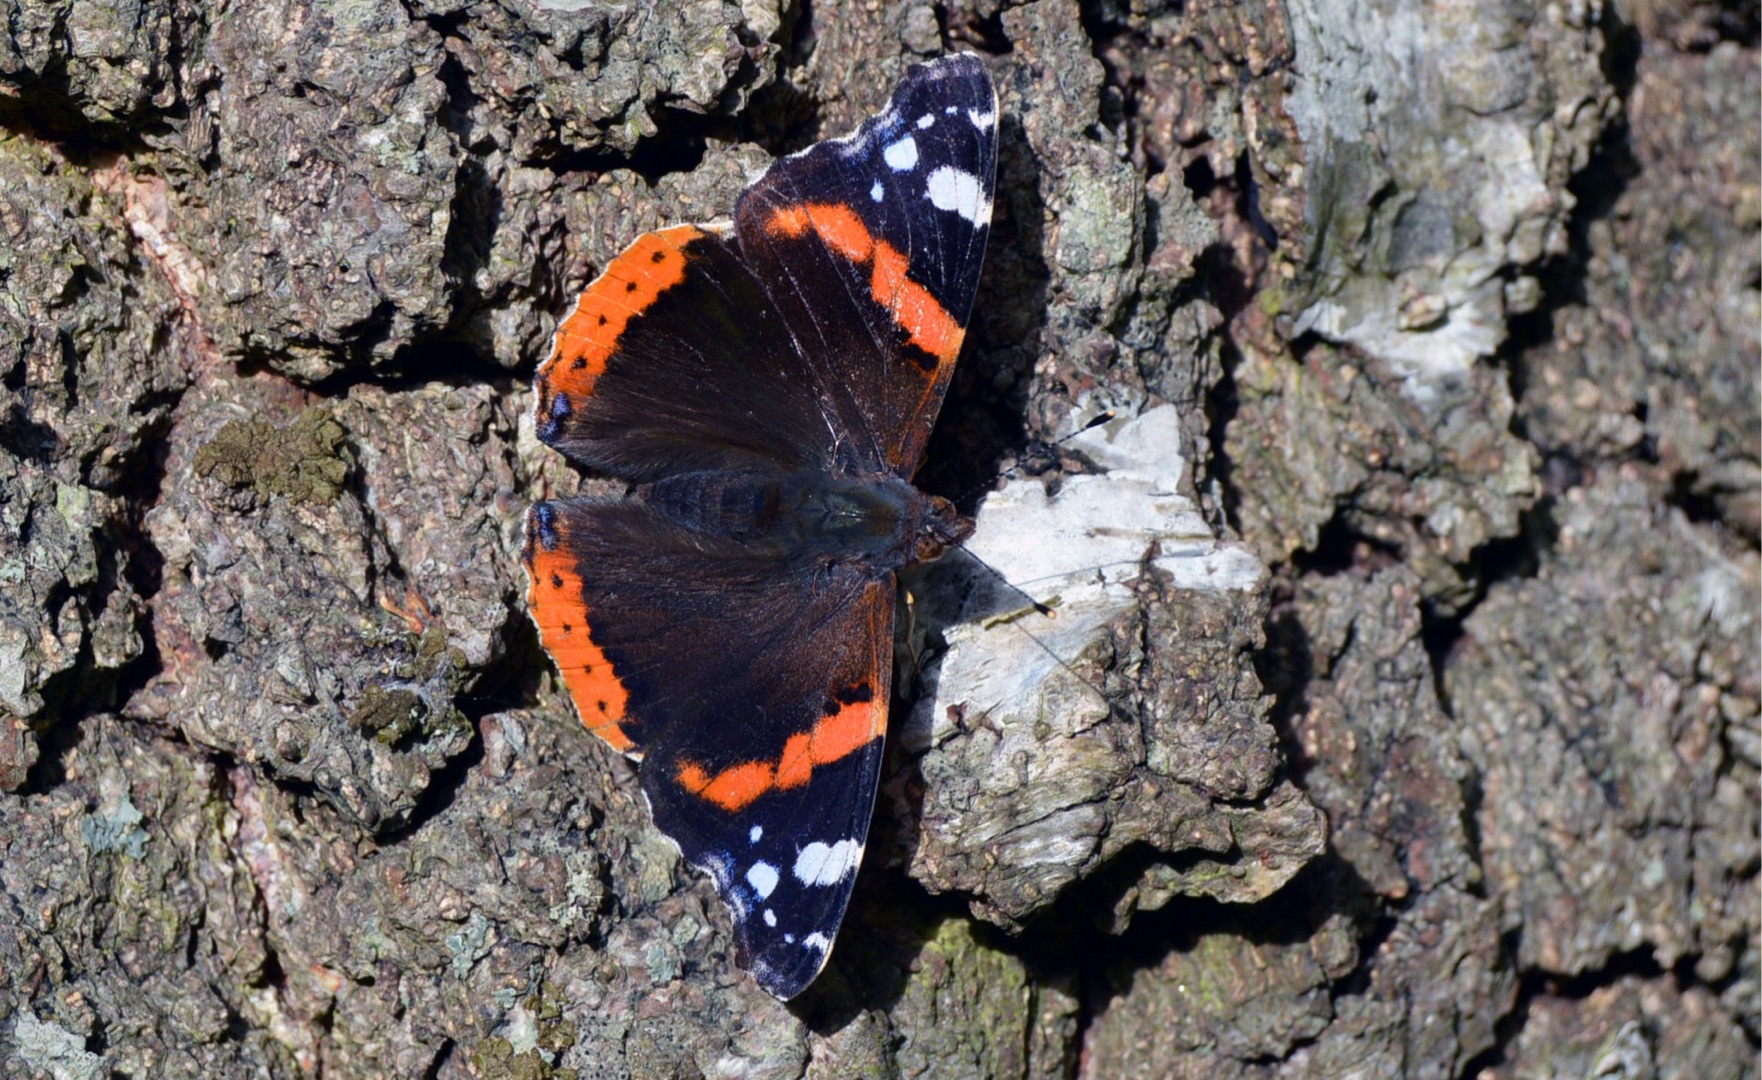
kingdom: Animalia
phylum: Arthropoda
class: Insecta
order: Lepidoptera
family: Nymphalidae
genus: Vanessa
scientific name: Vanessa atalanta
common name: Admiral
